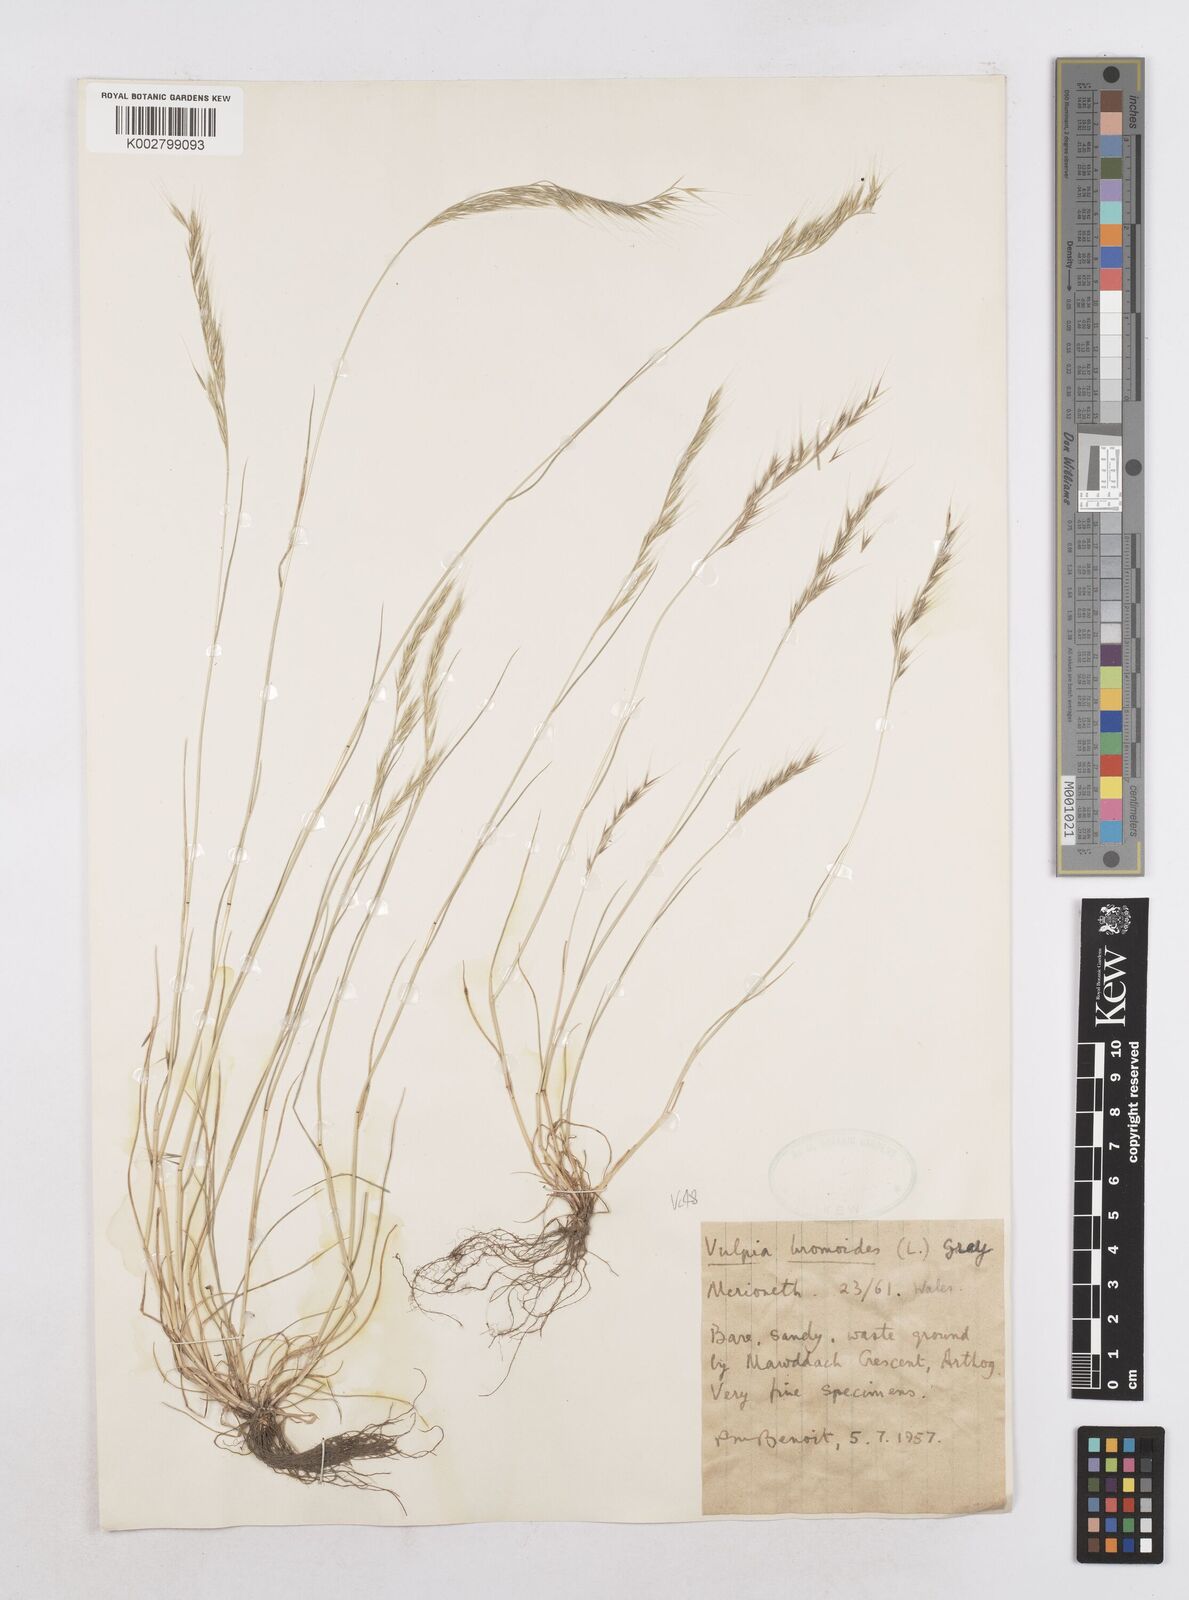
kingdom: Plantae
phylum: Tracheophyta
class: Liliopsida
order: Poales
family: Poaceae
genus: Festuca
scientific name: Festuca bromoides
